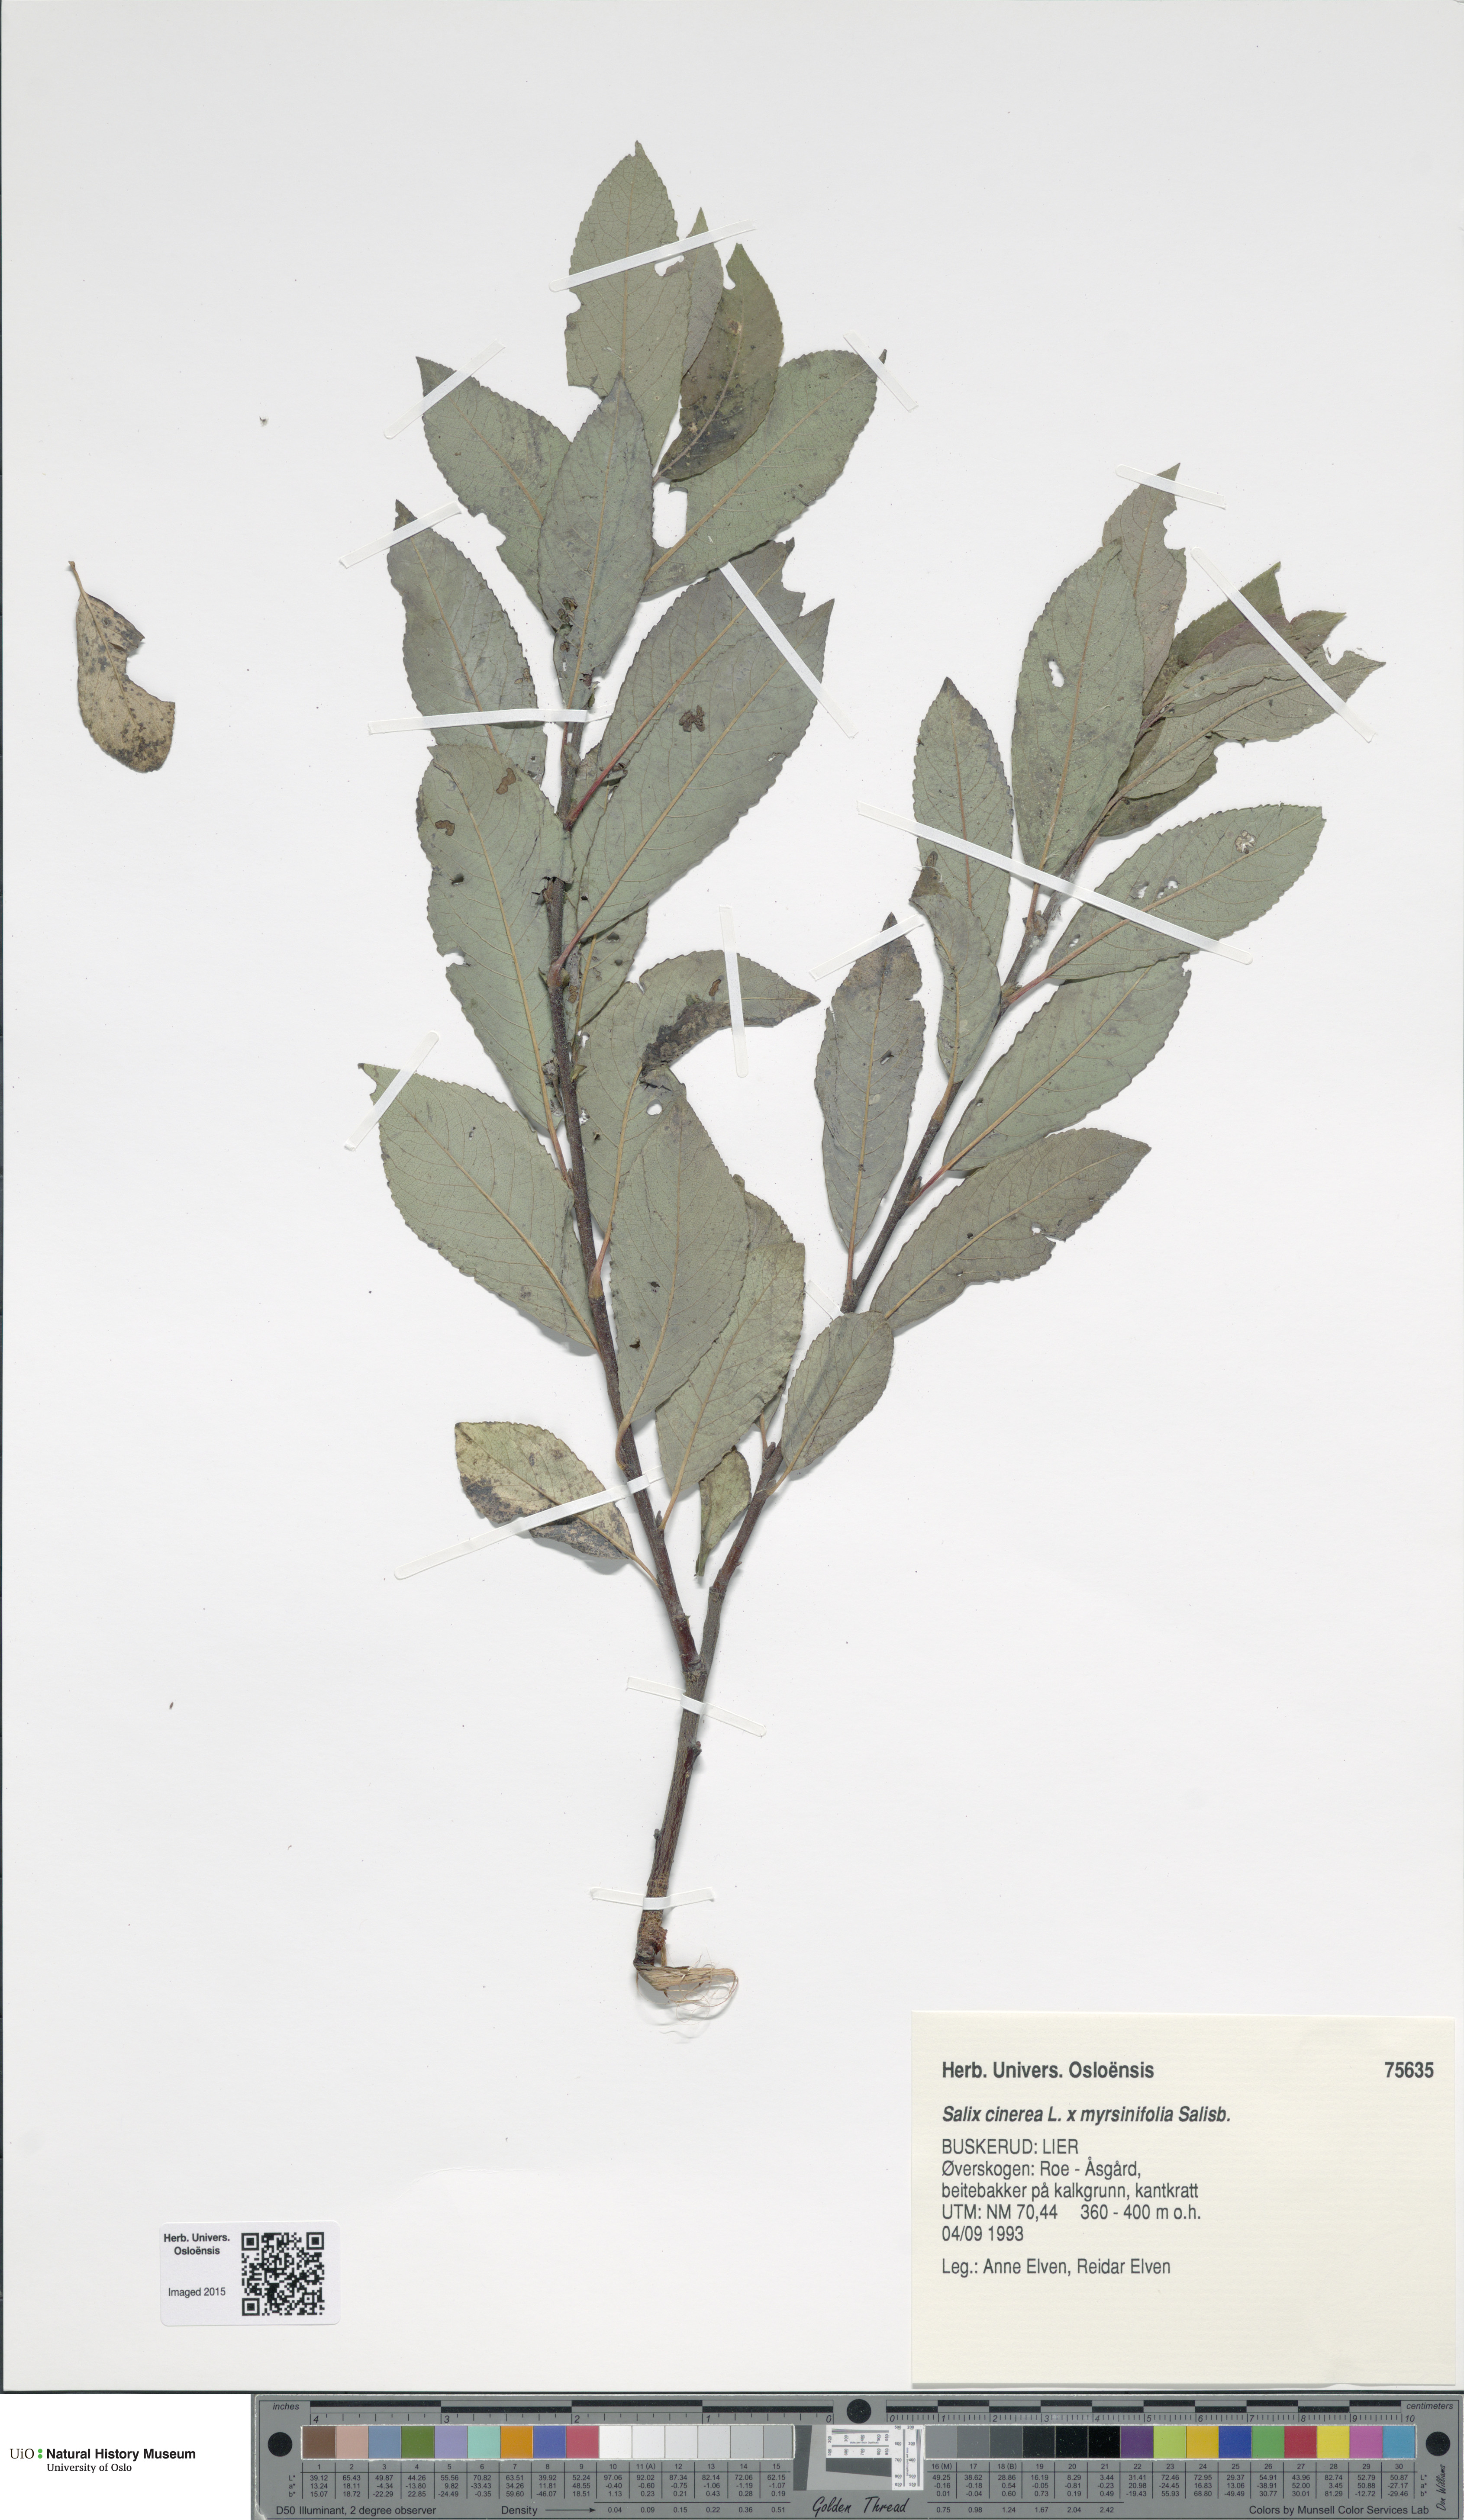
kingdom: Plantae
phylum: Tracheophyta
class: Magnoliopsida
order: Malpighiales
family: Salicaceae
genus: Salix
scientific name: Salix
